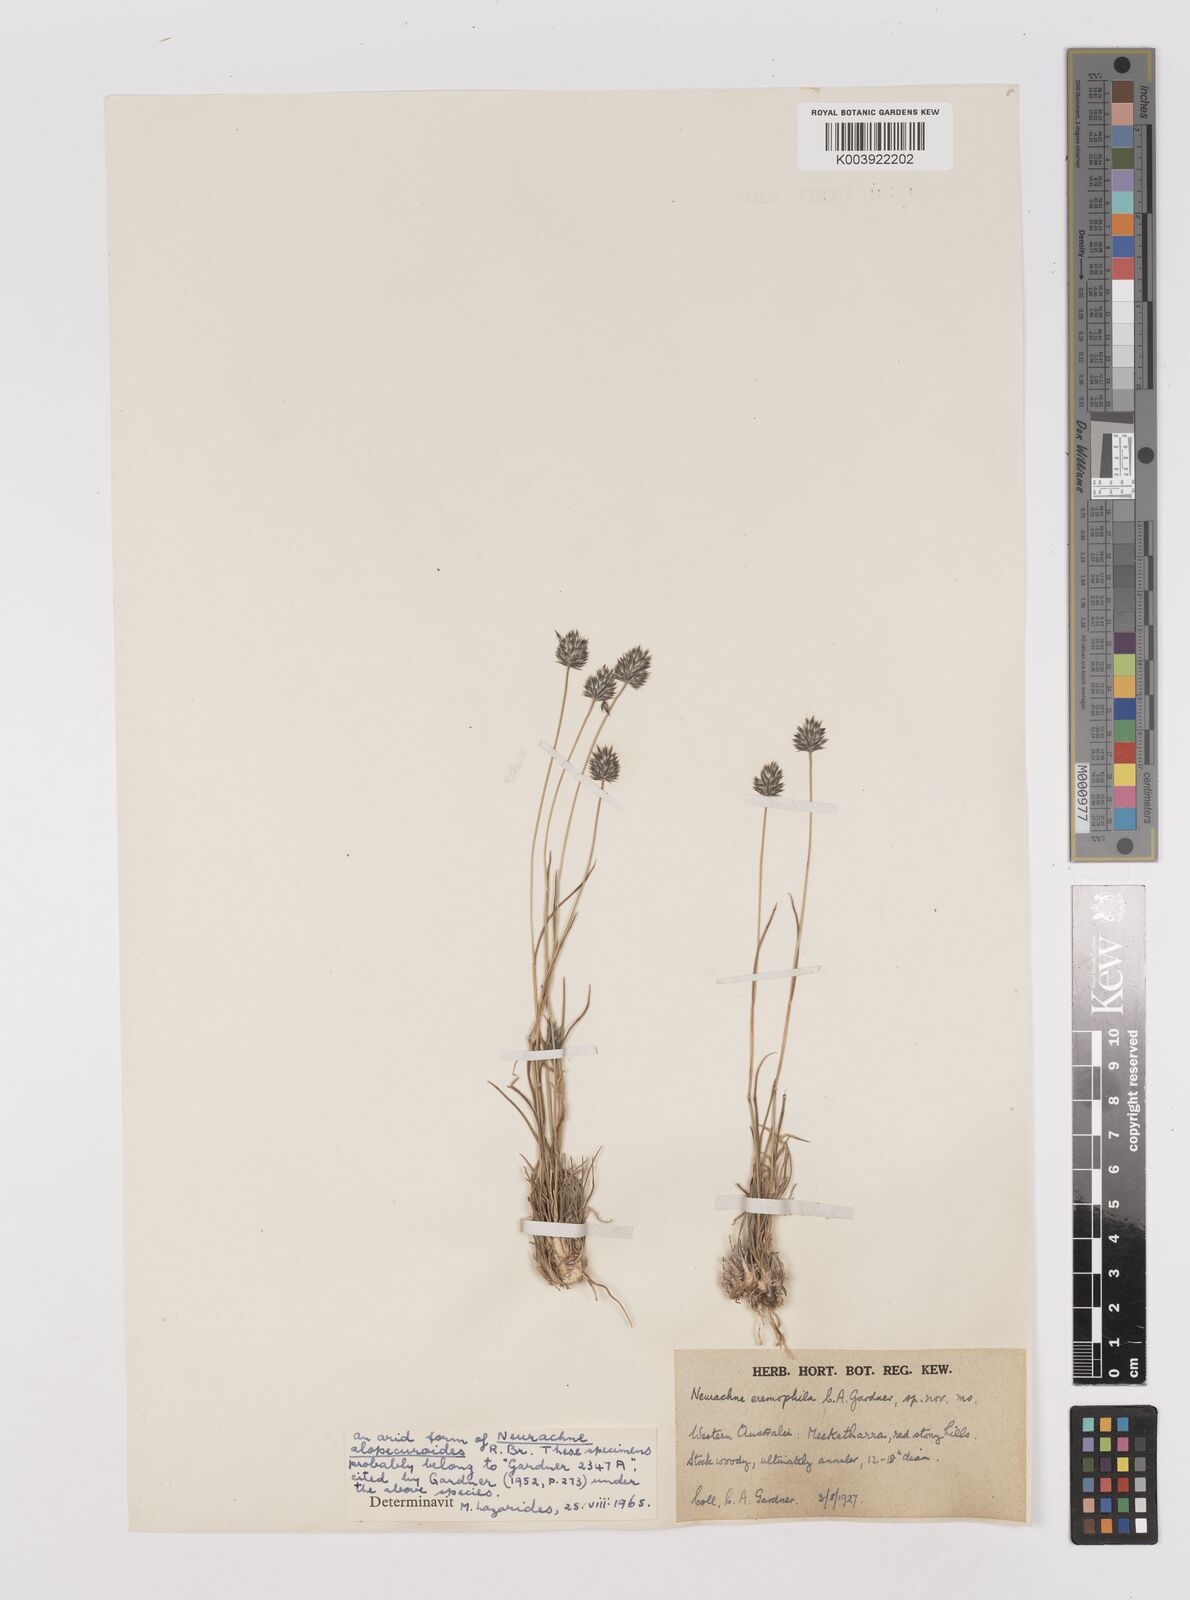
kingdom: Plantae
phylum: Tracheophyta
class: Liliopsida
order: Poales
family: Poaceae
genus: Neurachne
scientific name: Neurachne alopecuroidea
